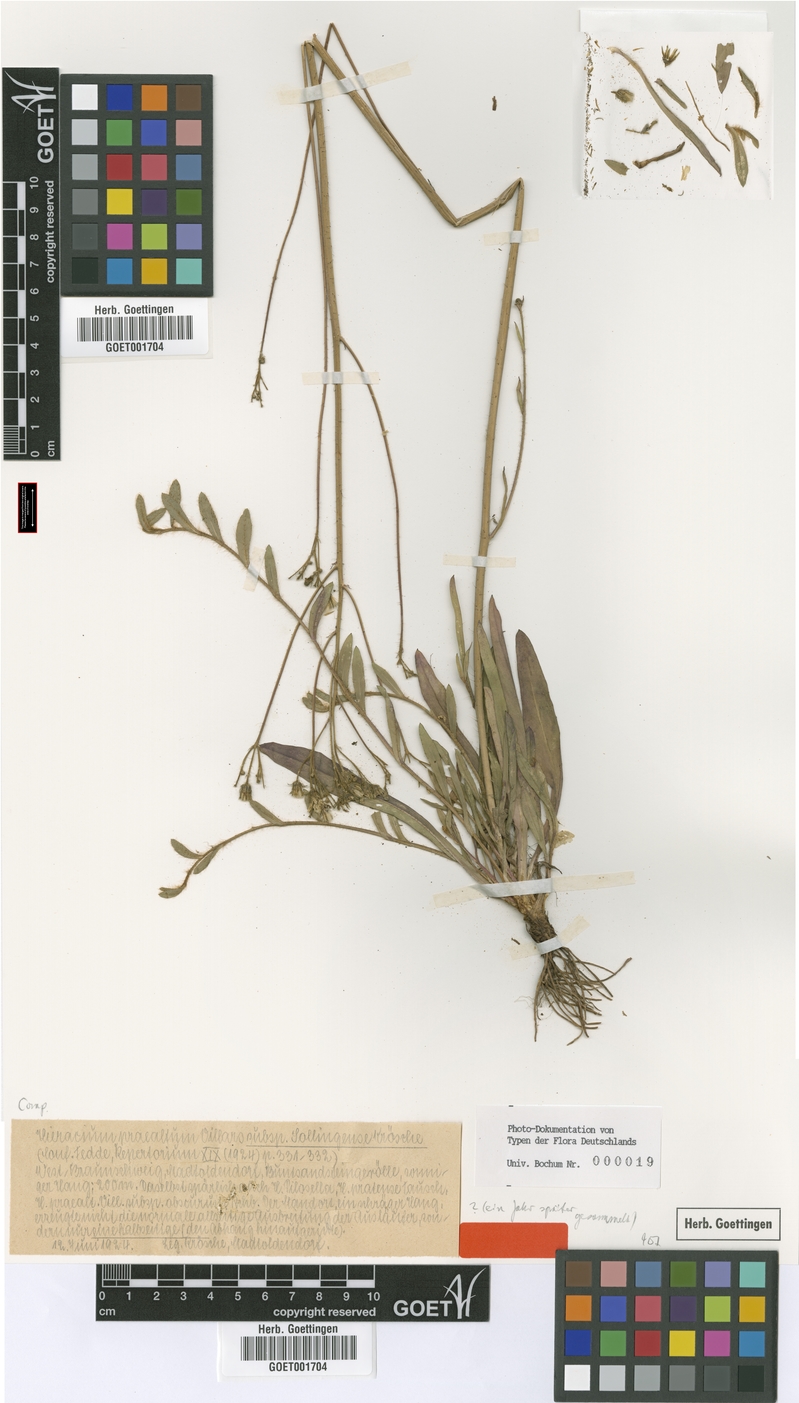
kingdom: Plantae
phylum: Tracheophyta
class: Magnoliopsida
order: Asterales
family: Asteraceae
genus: Hieracium
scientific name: Hieracium praealtum
